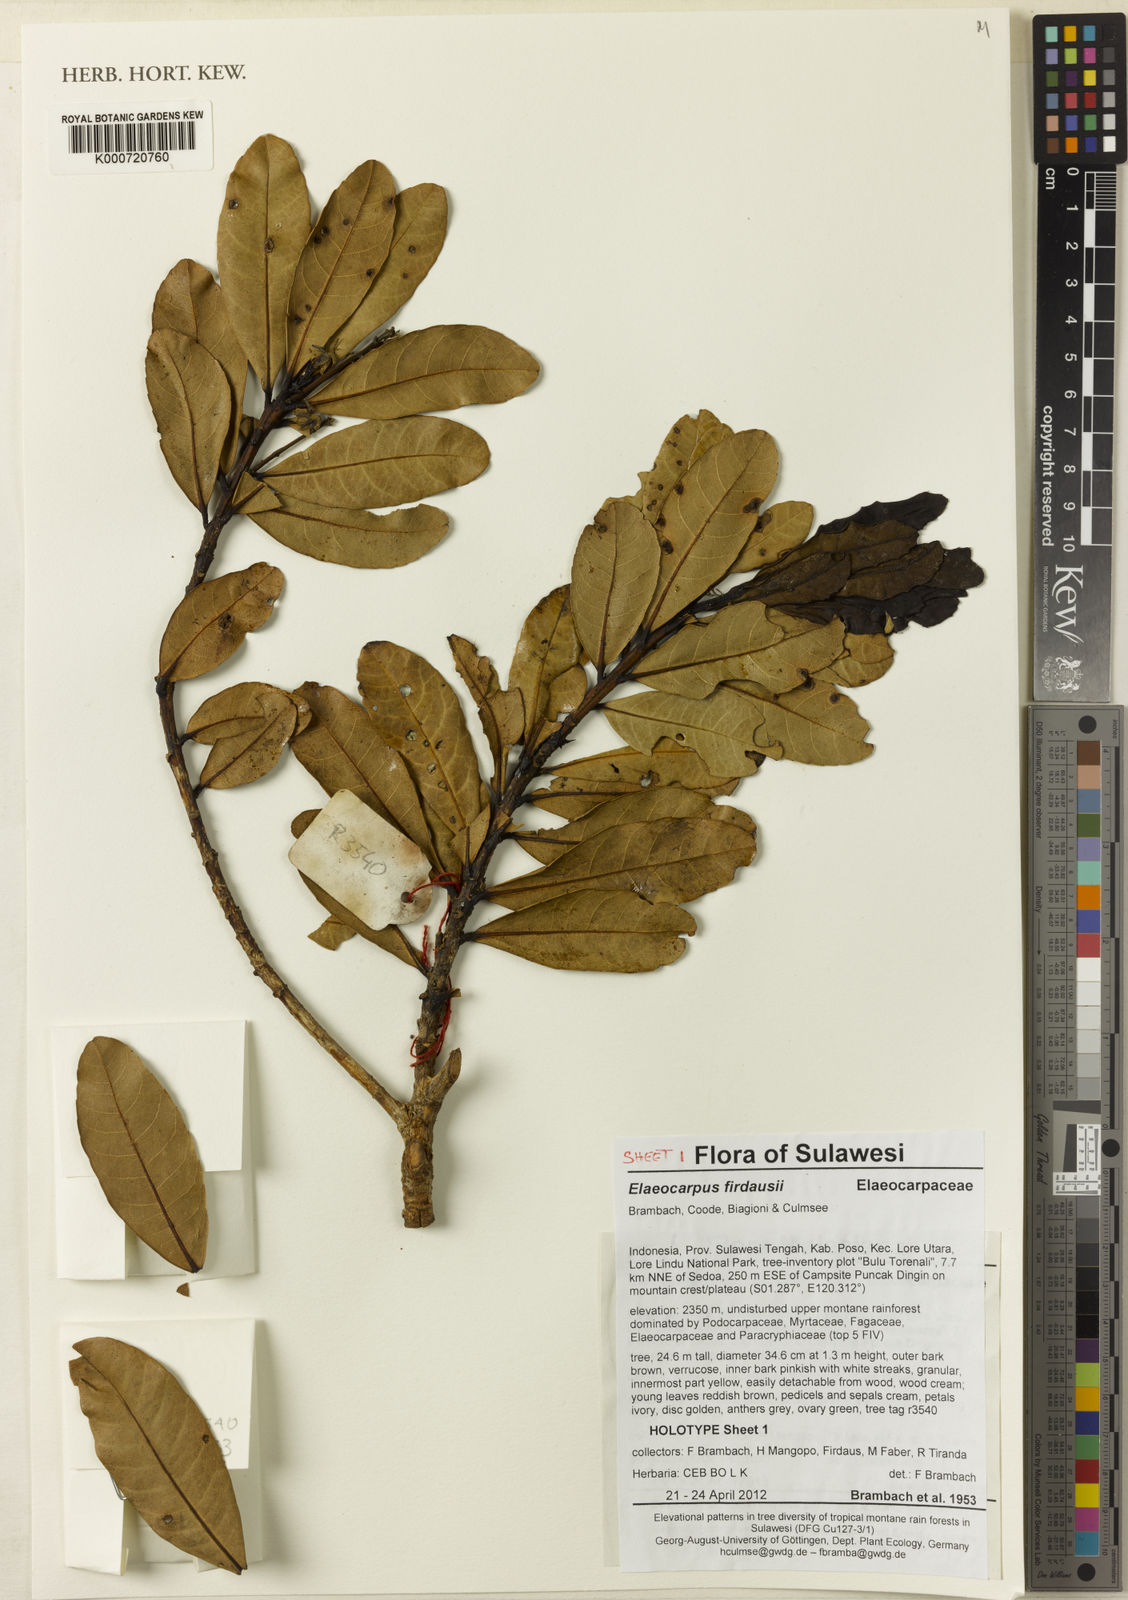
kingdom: Plantae
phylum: Tracheophyta
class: Magnoliopsida
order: Oxalidales
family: Elaeocarpaceae
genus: Elaeocarpus
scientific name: Elaeocarpus firdausii
